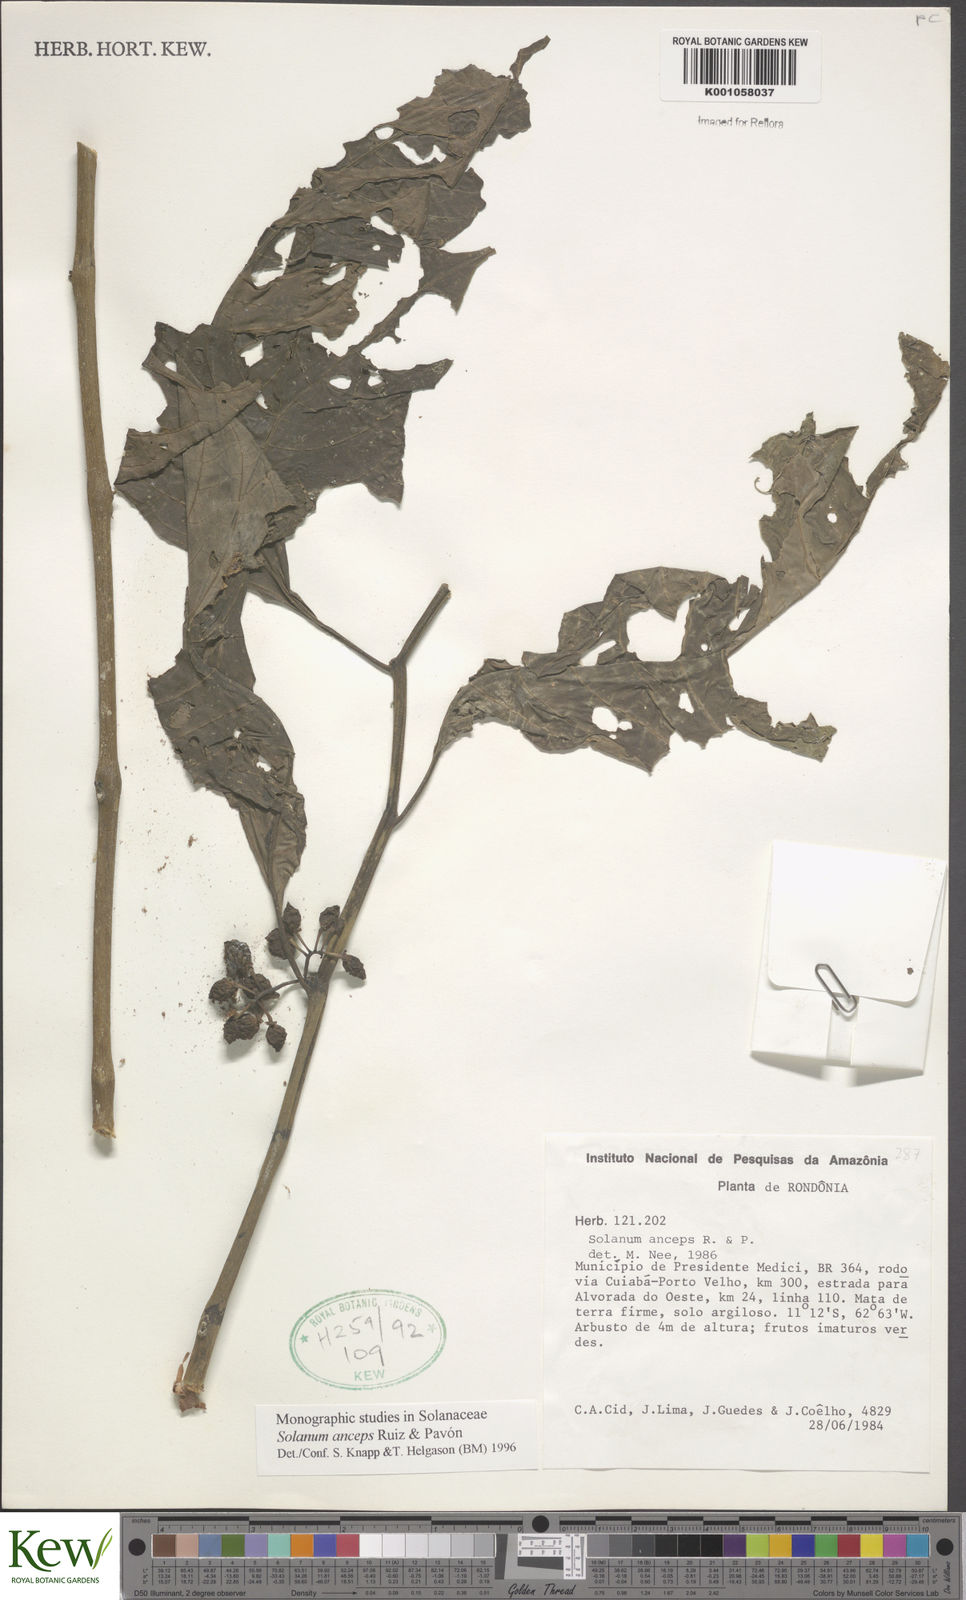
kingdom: Plantae
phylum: Tracheophyta
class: Magnoliopsida
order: Solanales
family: Solanaceae
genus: Solanum
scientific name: Solanum anceps
